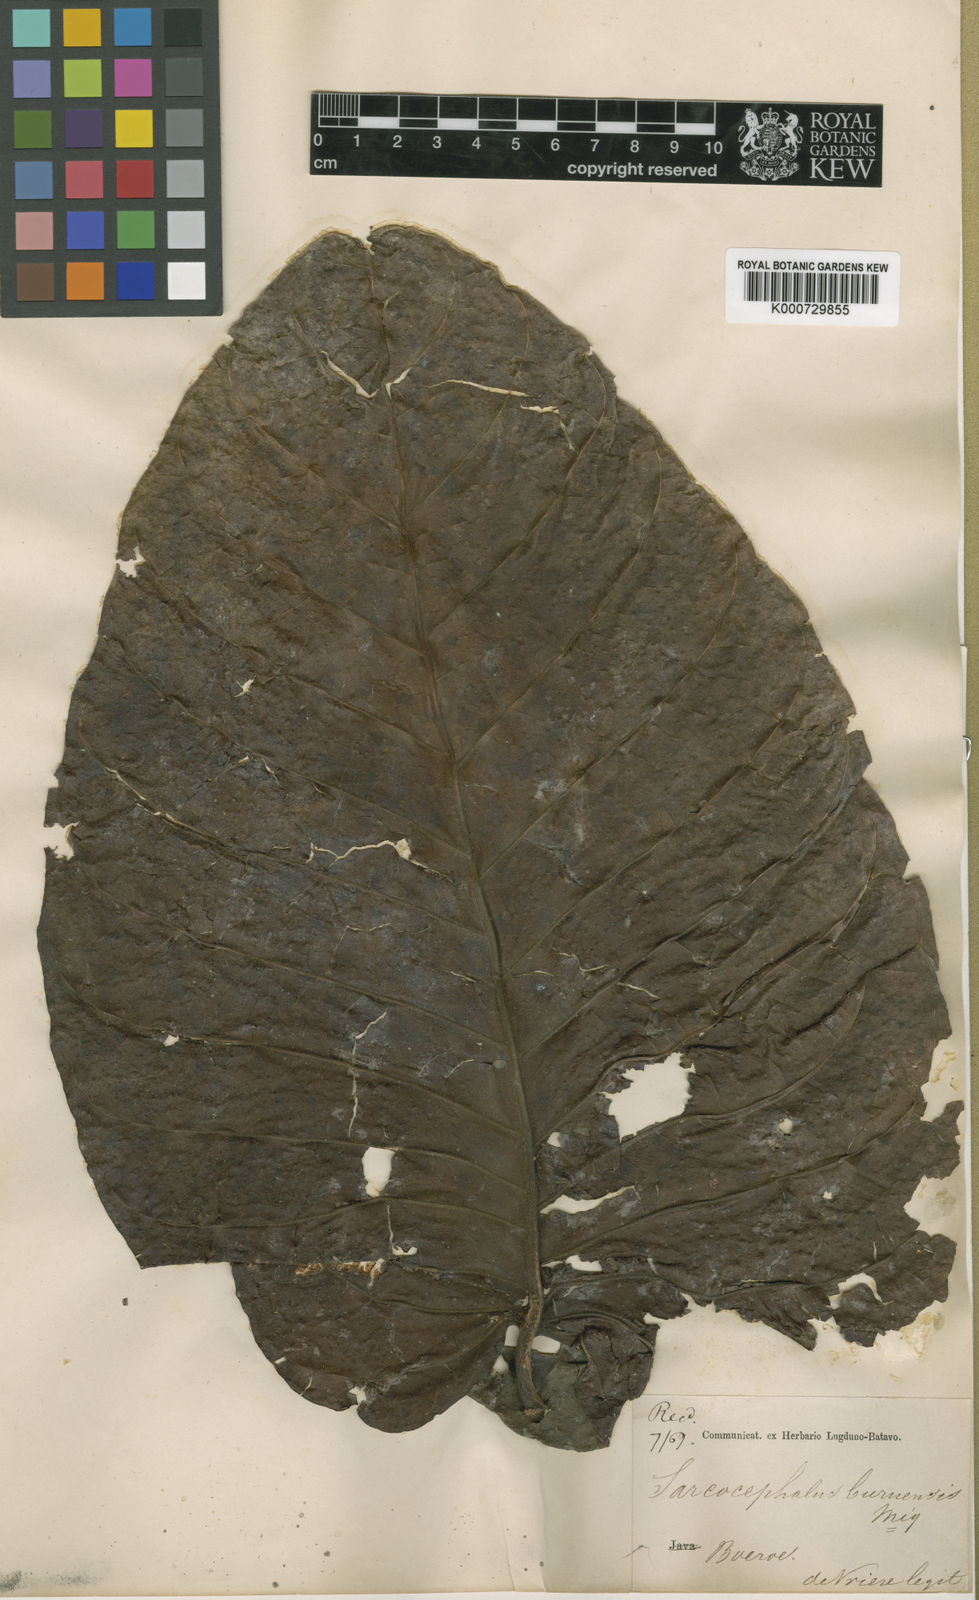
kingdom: Plantae
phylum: Tracheophyta
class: Magnoliopsida
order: Gentianales
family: Rubiaceae
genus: Nauclea
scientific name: Nauclea orientalis
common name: Leichhardt-pine
